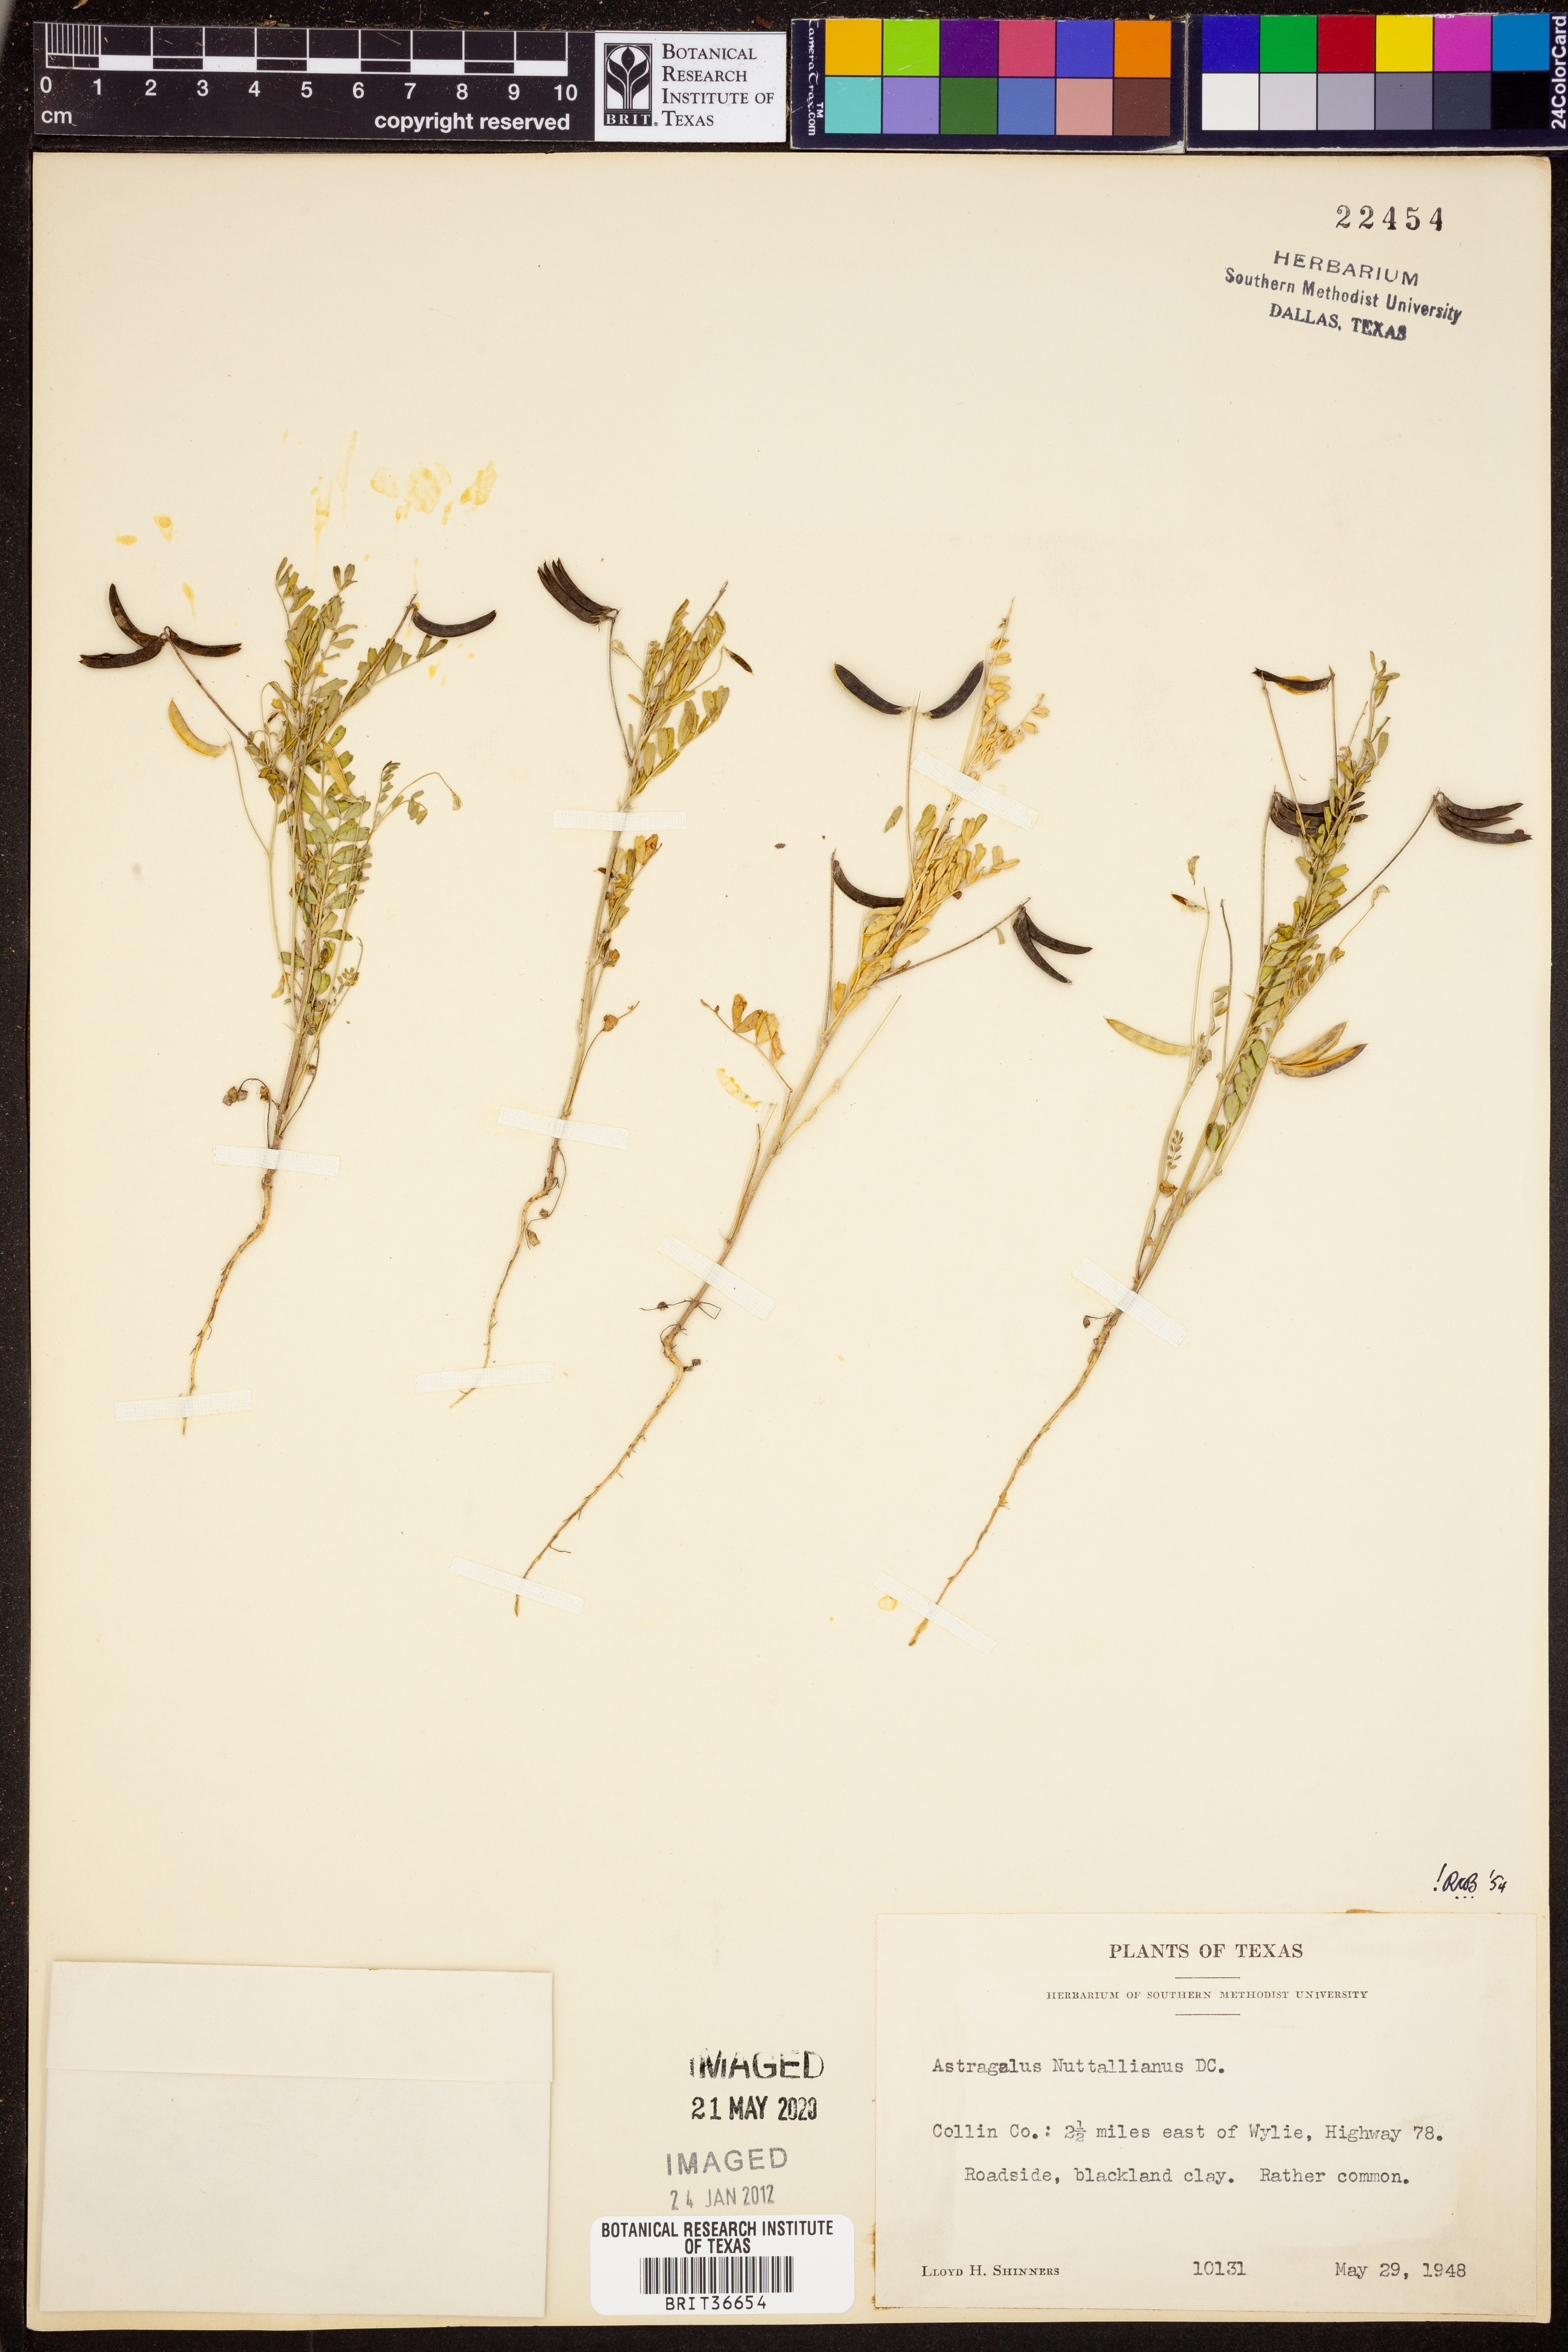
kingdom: Plantae
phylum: Tracheophyta
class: Magnoliopsida
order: Fabales
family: Fabaceae
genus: Astragalus
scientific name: Astragalus nuttallianus
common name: Smallflowered milkvetch
